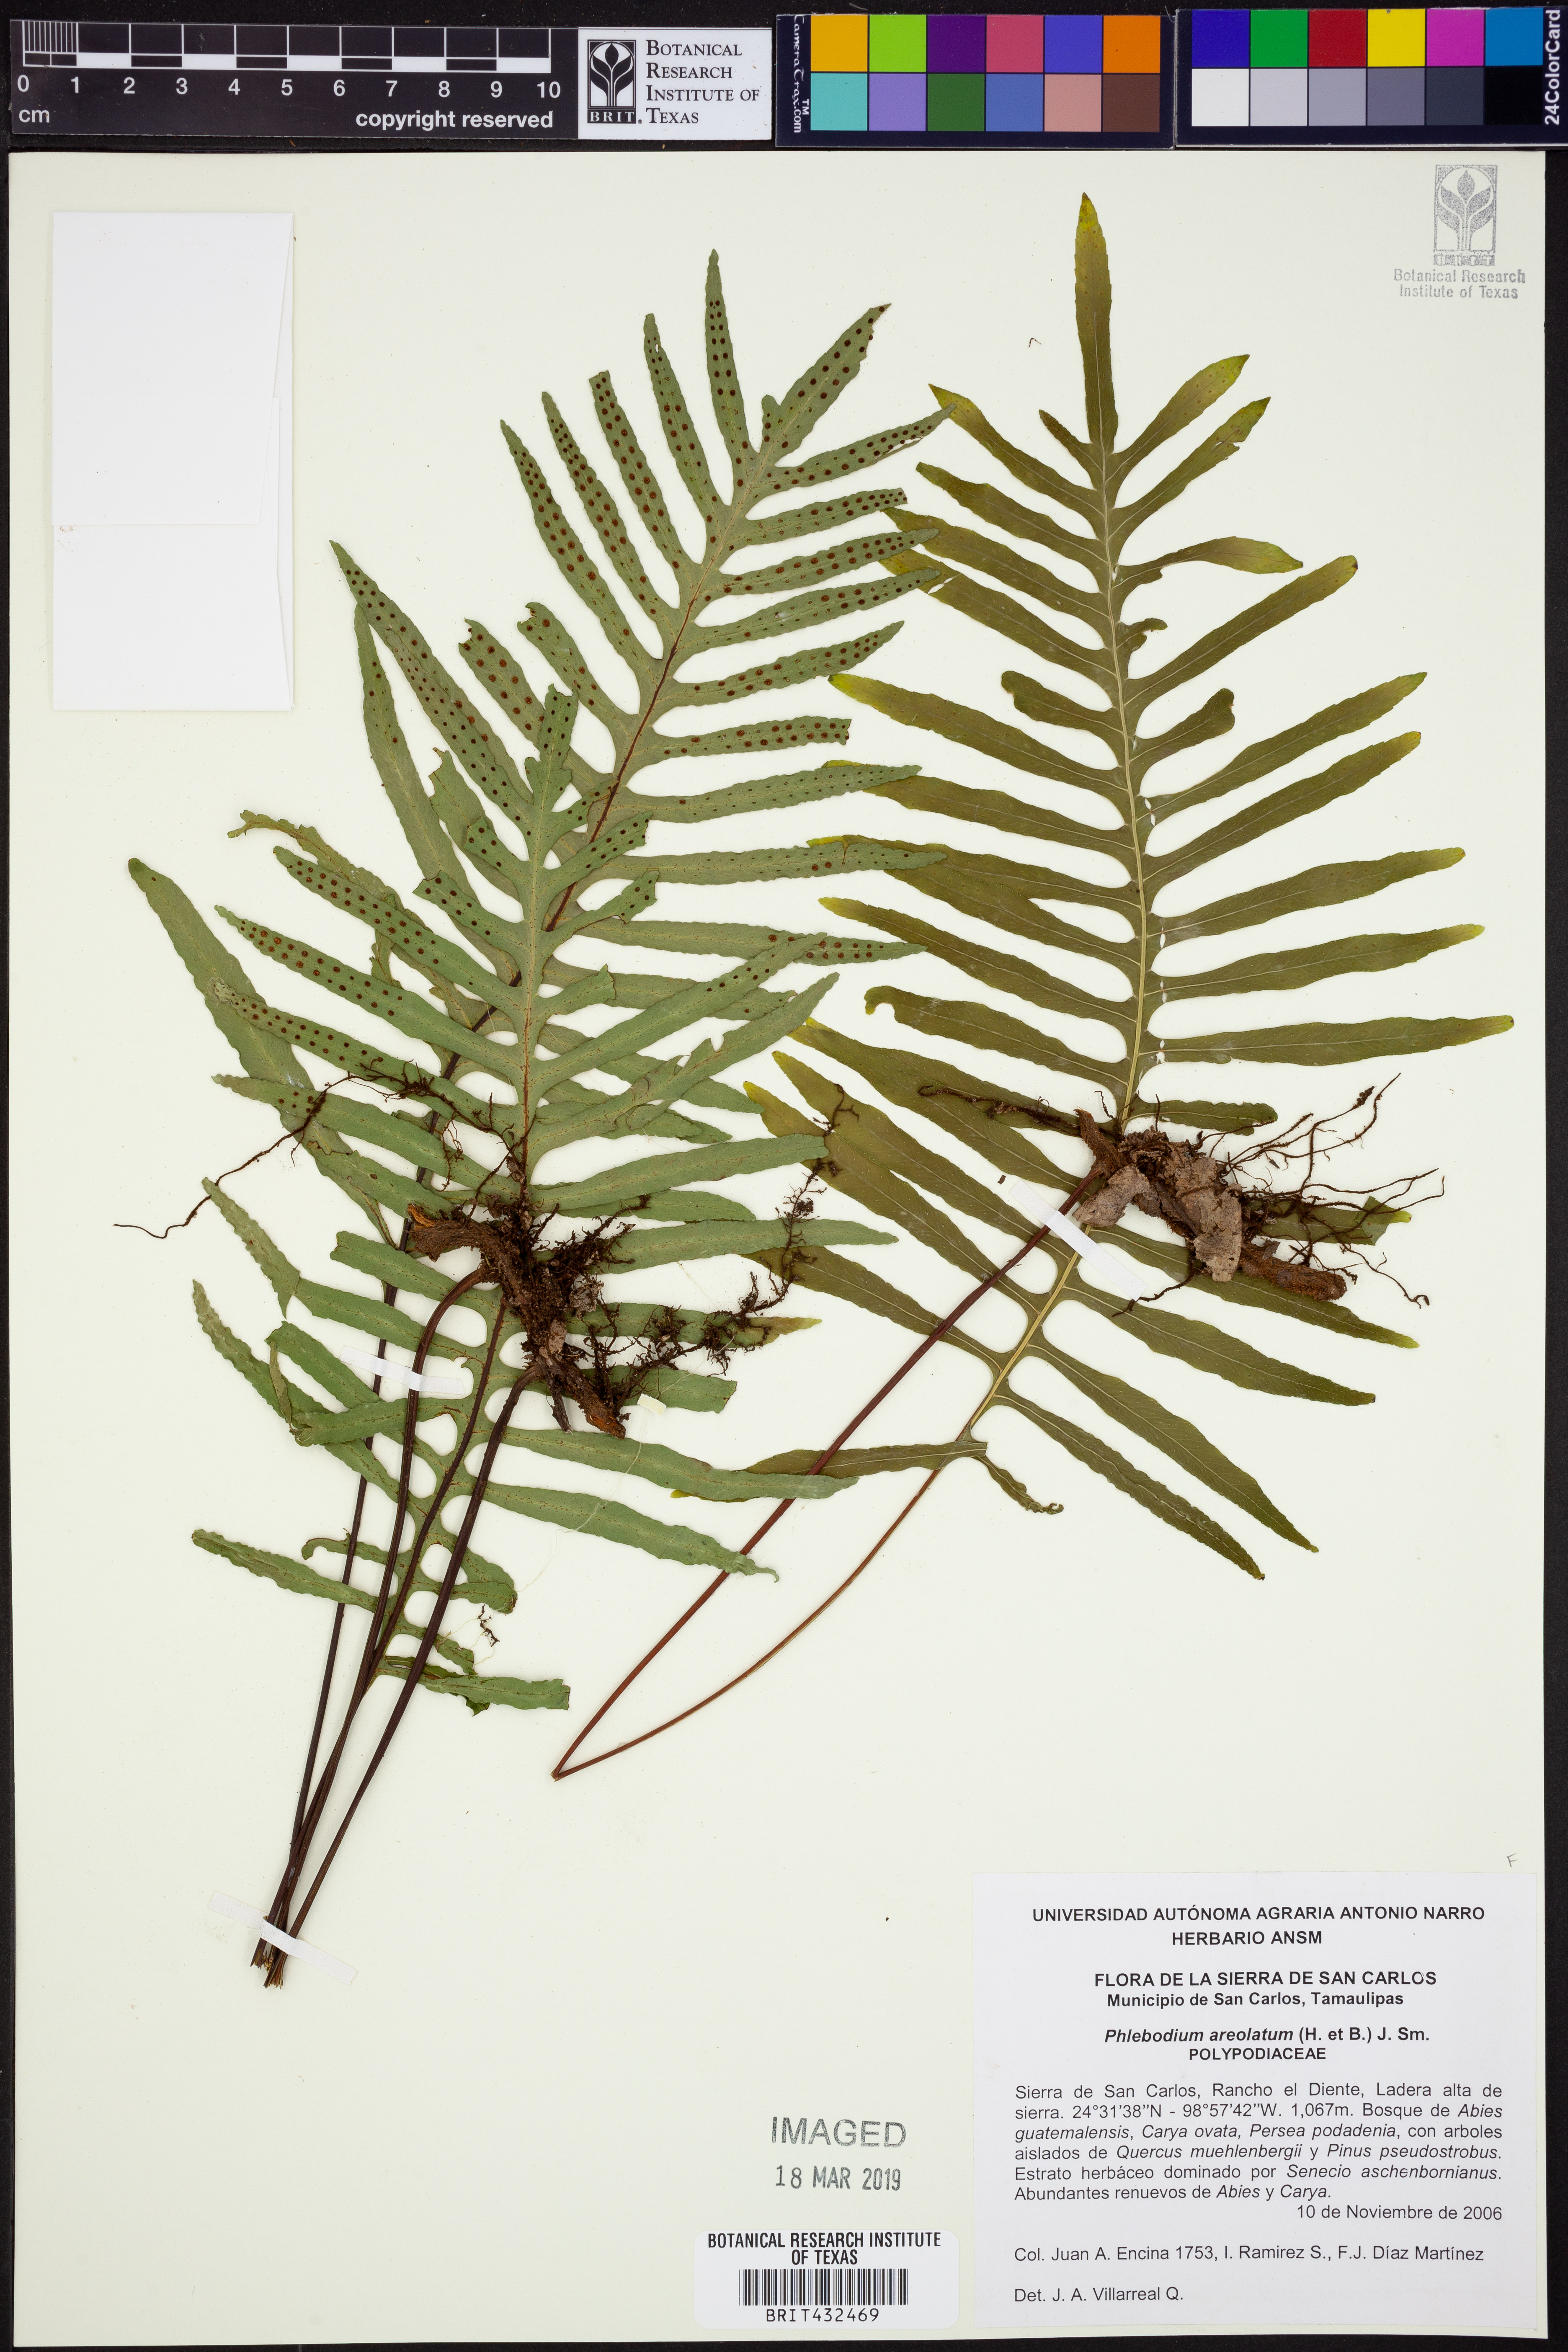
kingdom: Plantae
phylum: Tracheophyta
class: Polypodiopsida
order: Polypodiales
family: Polypodiaceae
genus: Phlebodium
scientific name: Phlebodium pseudoaureum
